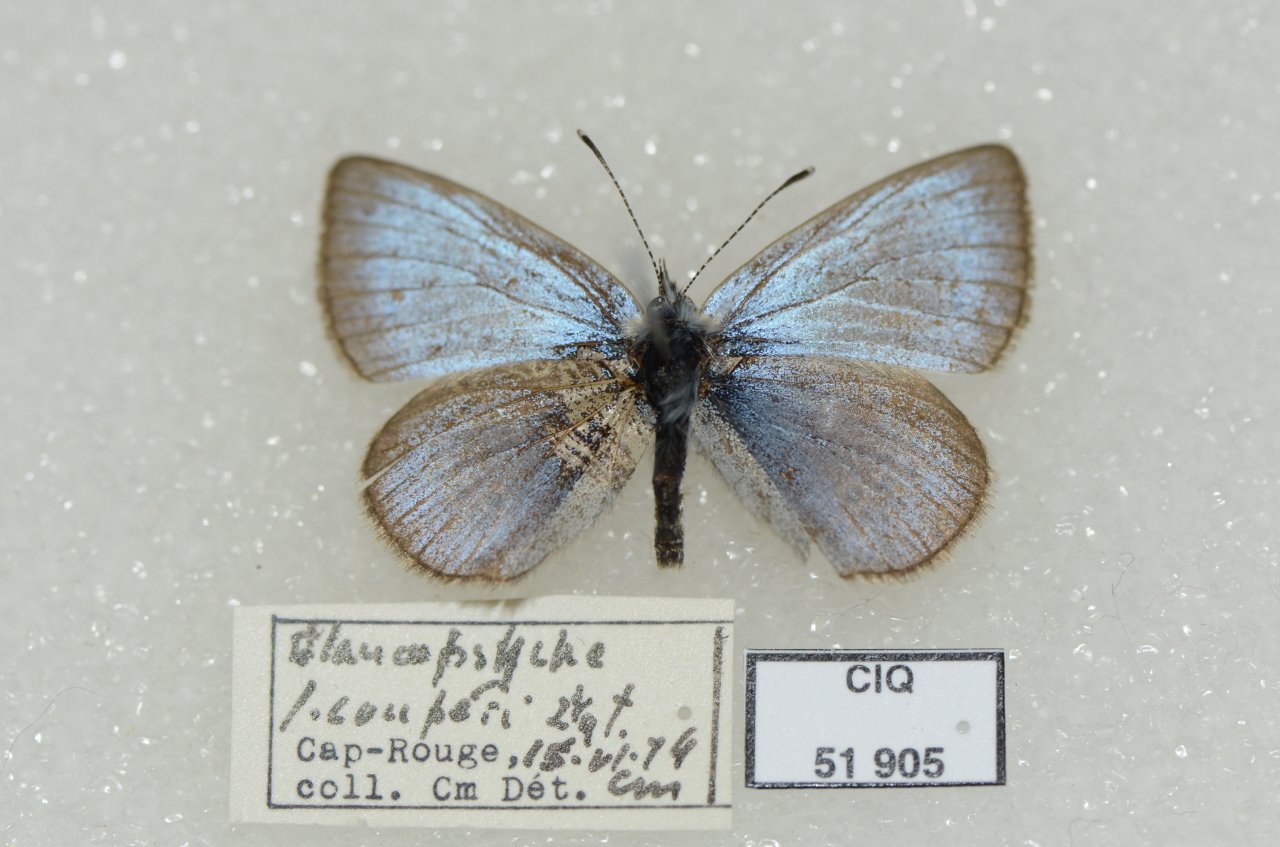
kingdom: Animalia
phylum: Arthropoda
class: Insecta
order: Lepidoptera
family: Lycaenidae
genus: Glaucopsyche
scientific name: Glaucopsyche lygdamus
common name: Silvery Blue
